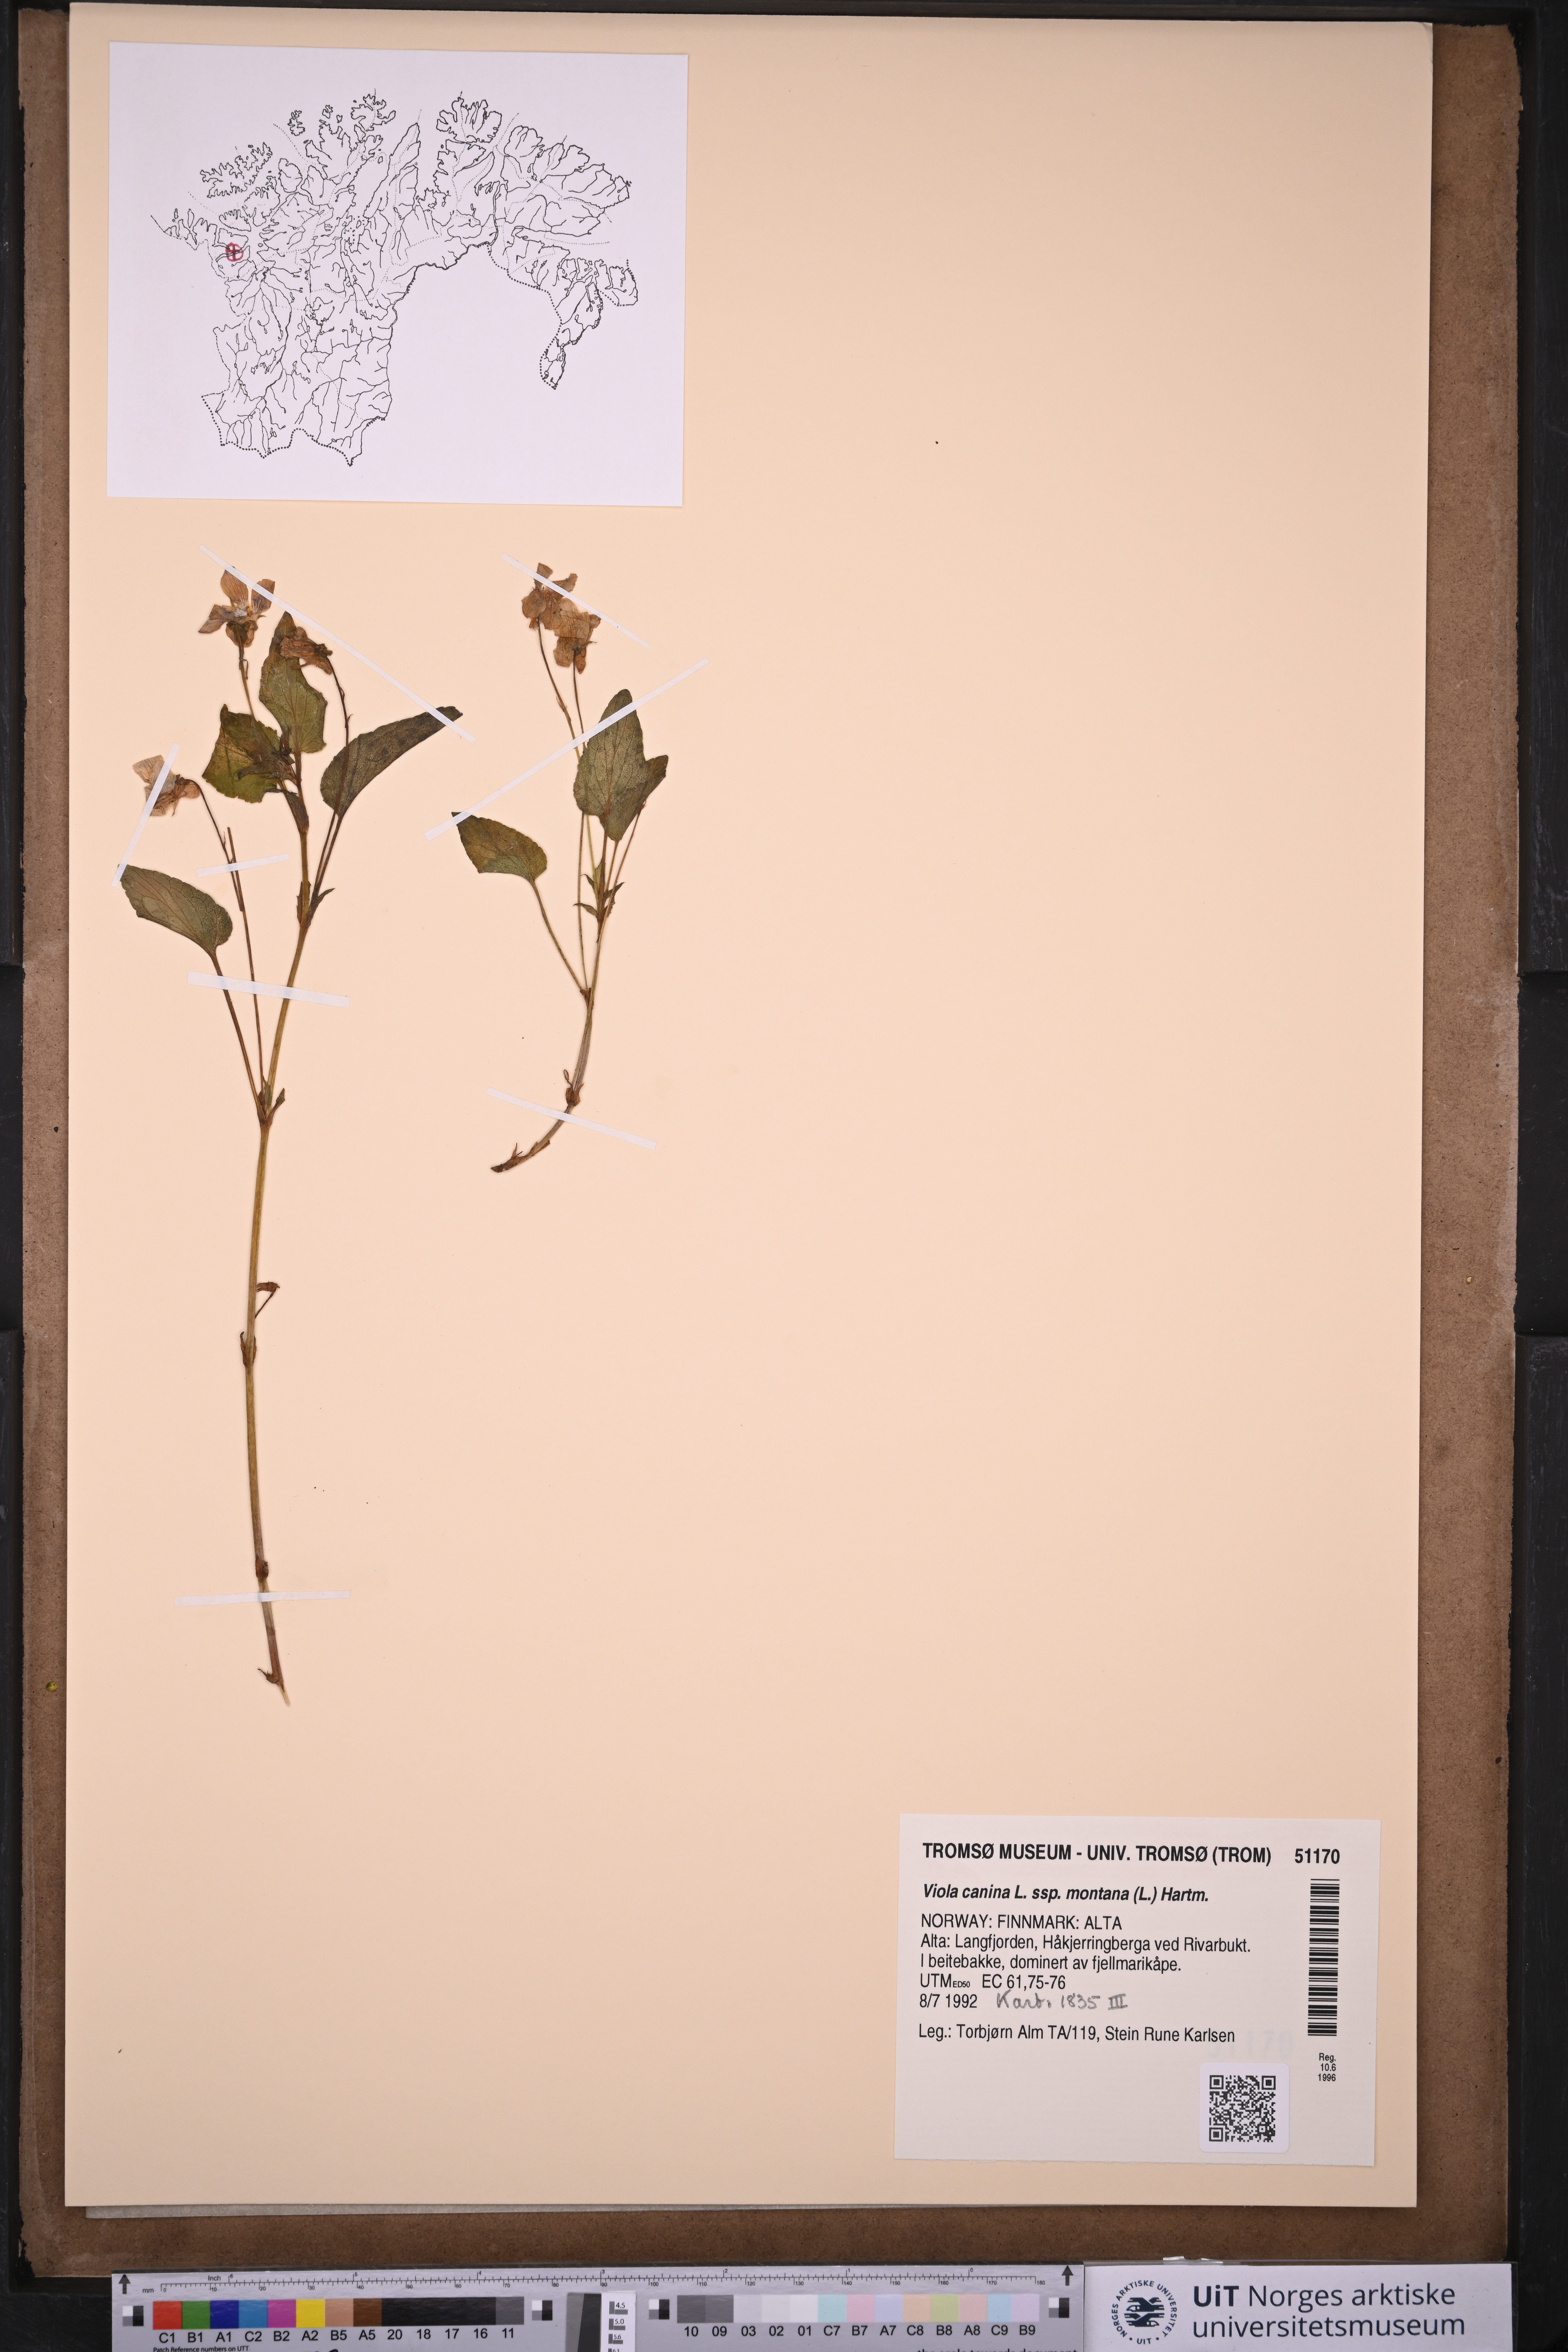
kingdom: Plantae
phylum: Tracheophyta
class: Magnoliopsida
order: Malpighiales
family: Violaceae
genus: Viola
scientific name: Viola ruppii
